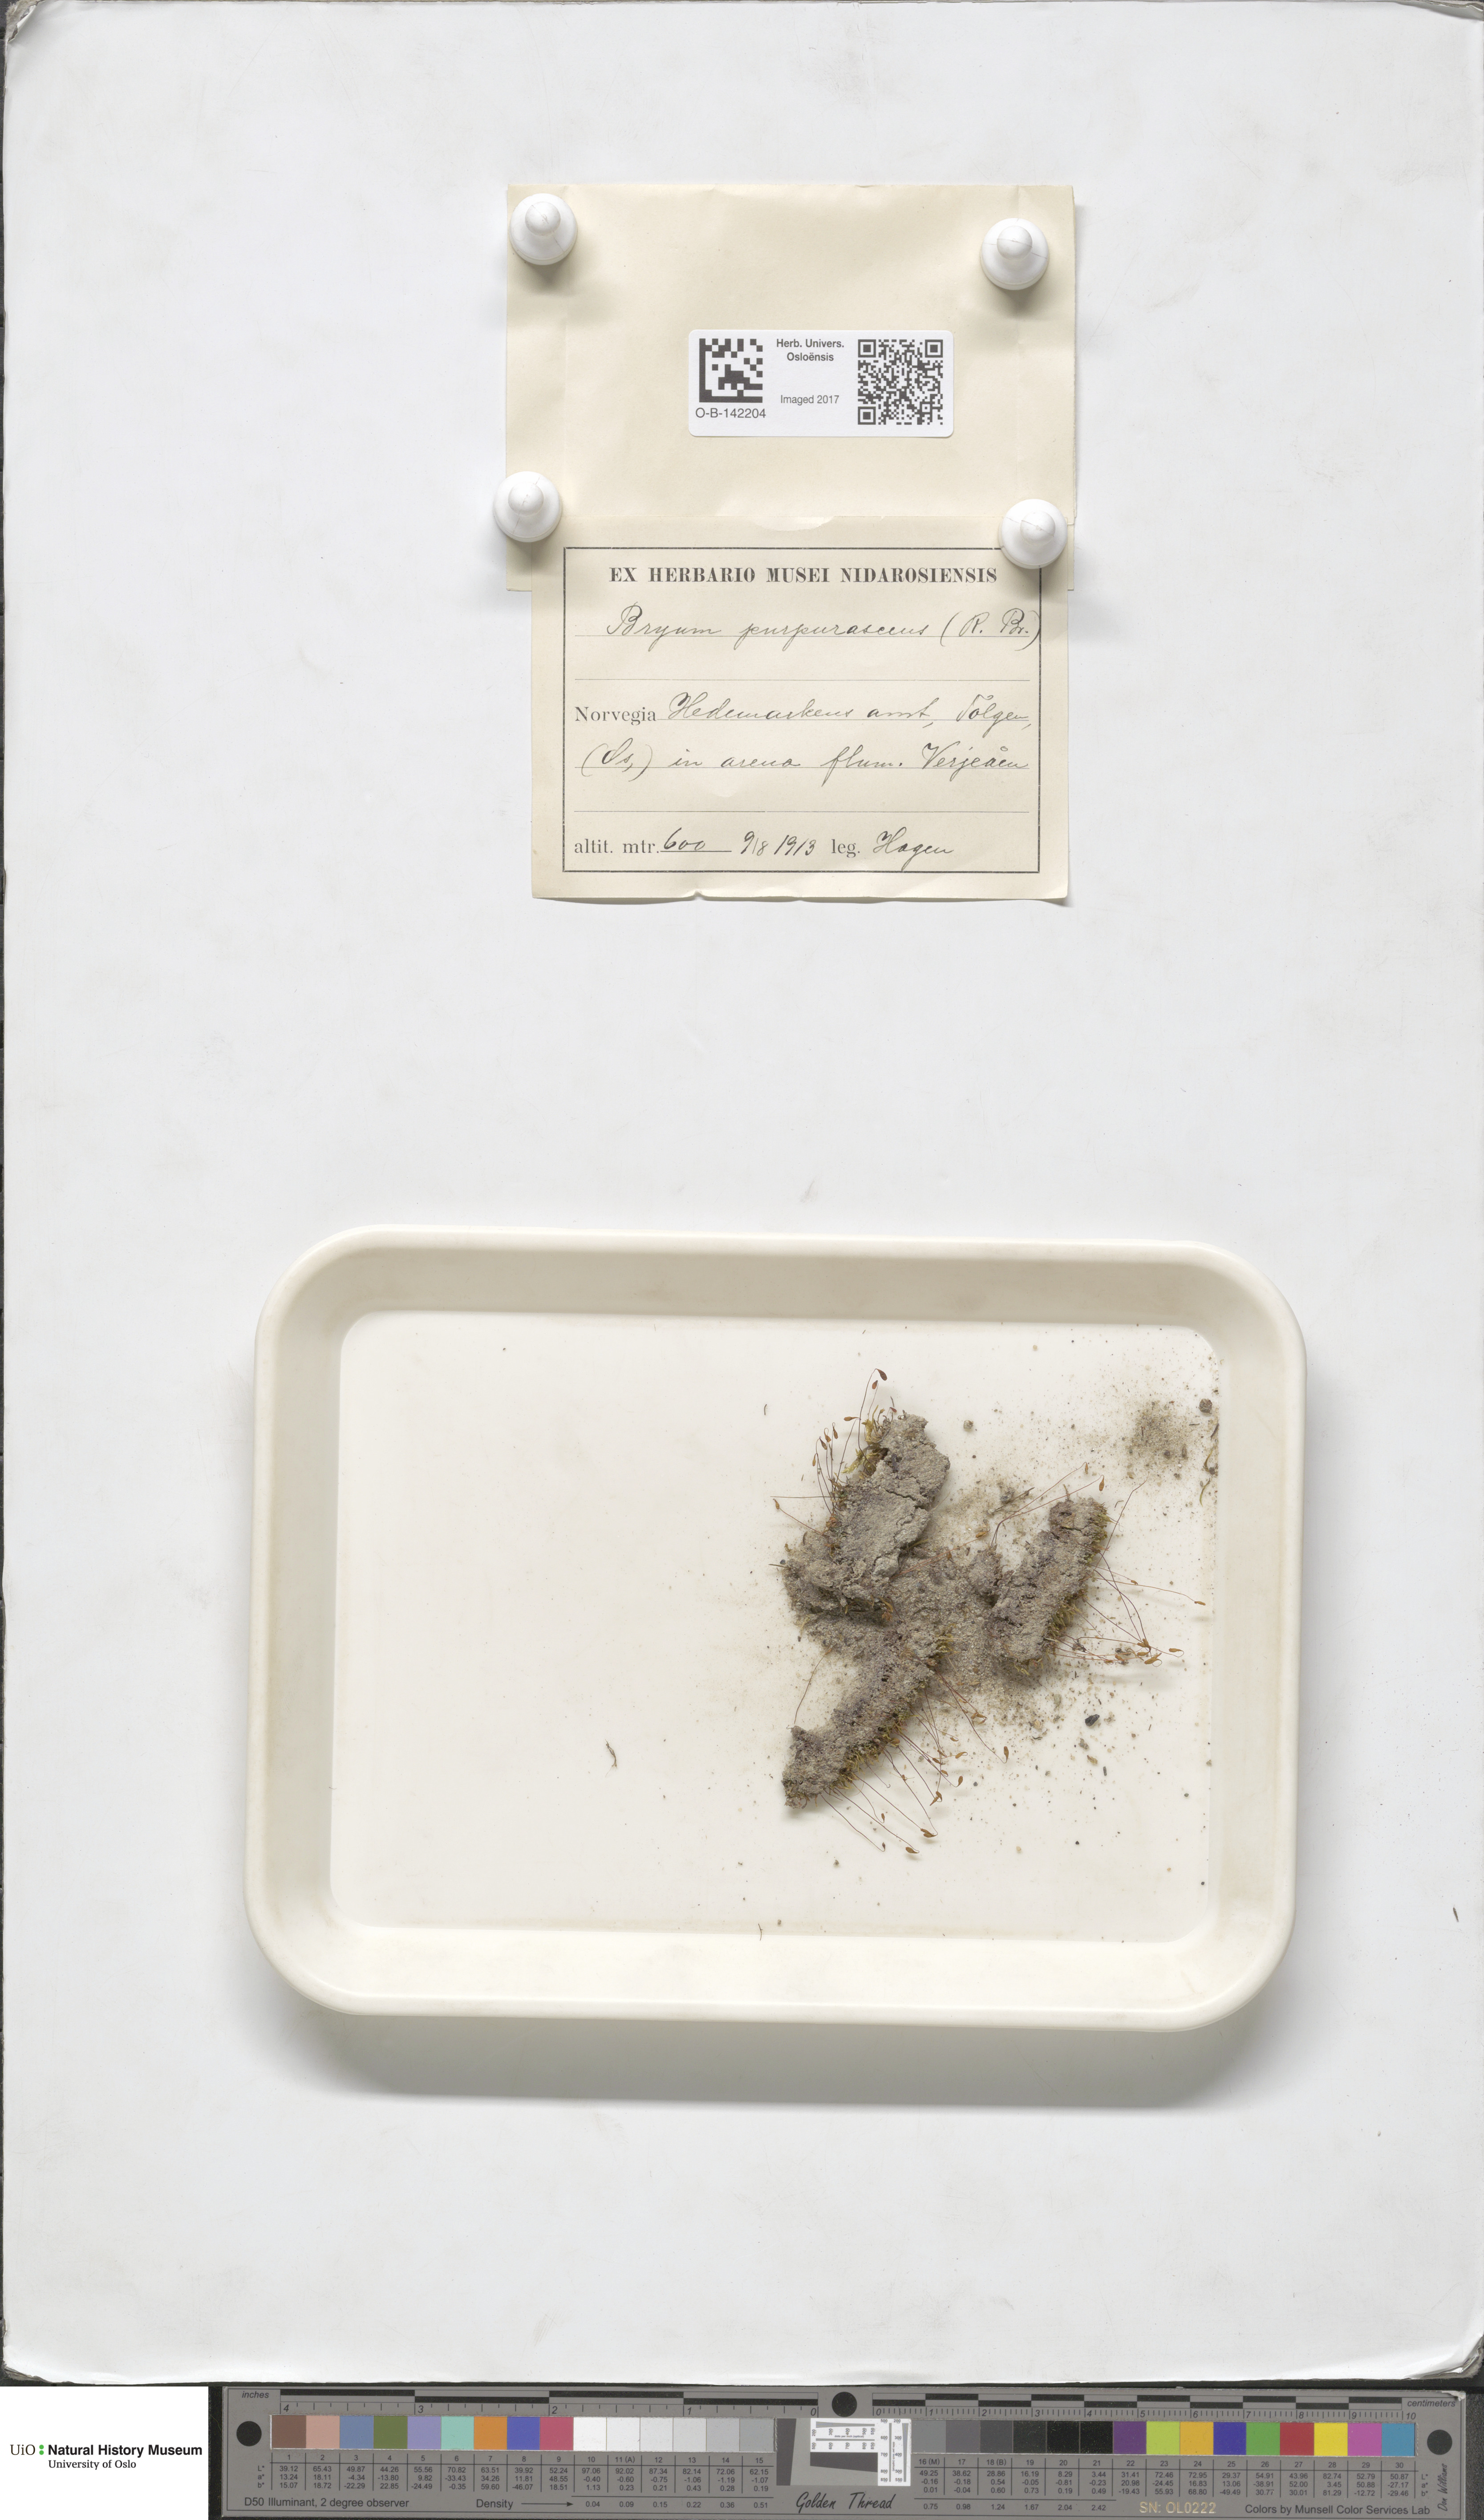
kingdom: Plantae
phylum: Bryophyta
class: Bryopsida
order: Bryales
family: Bryaceae
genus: Ptychostomum
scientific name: Ptychostomum arcticum
